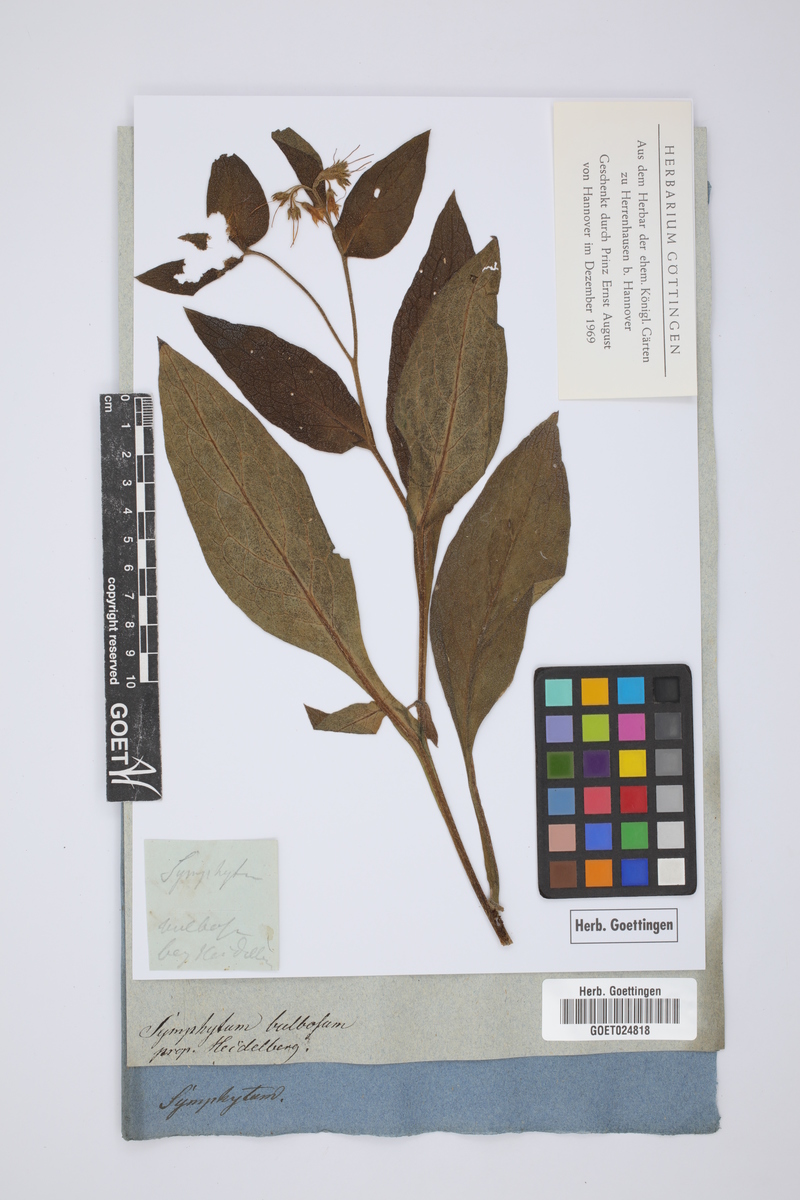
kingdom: Plantae
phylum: Tracheophyta
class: Magnoliopsida
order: Boraginales
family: Boraginaceae
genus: Symphytum
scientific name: Symphytum bulbosum
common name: Bulbous comfrey
